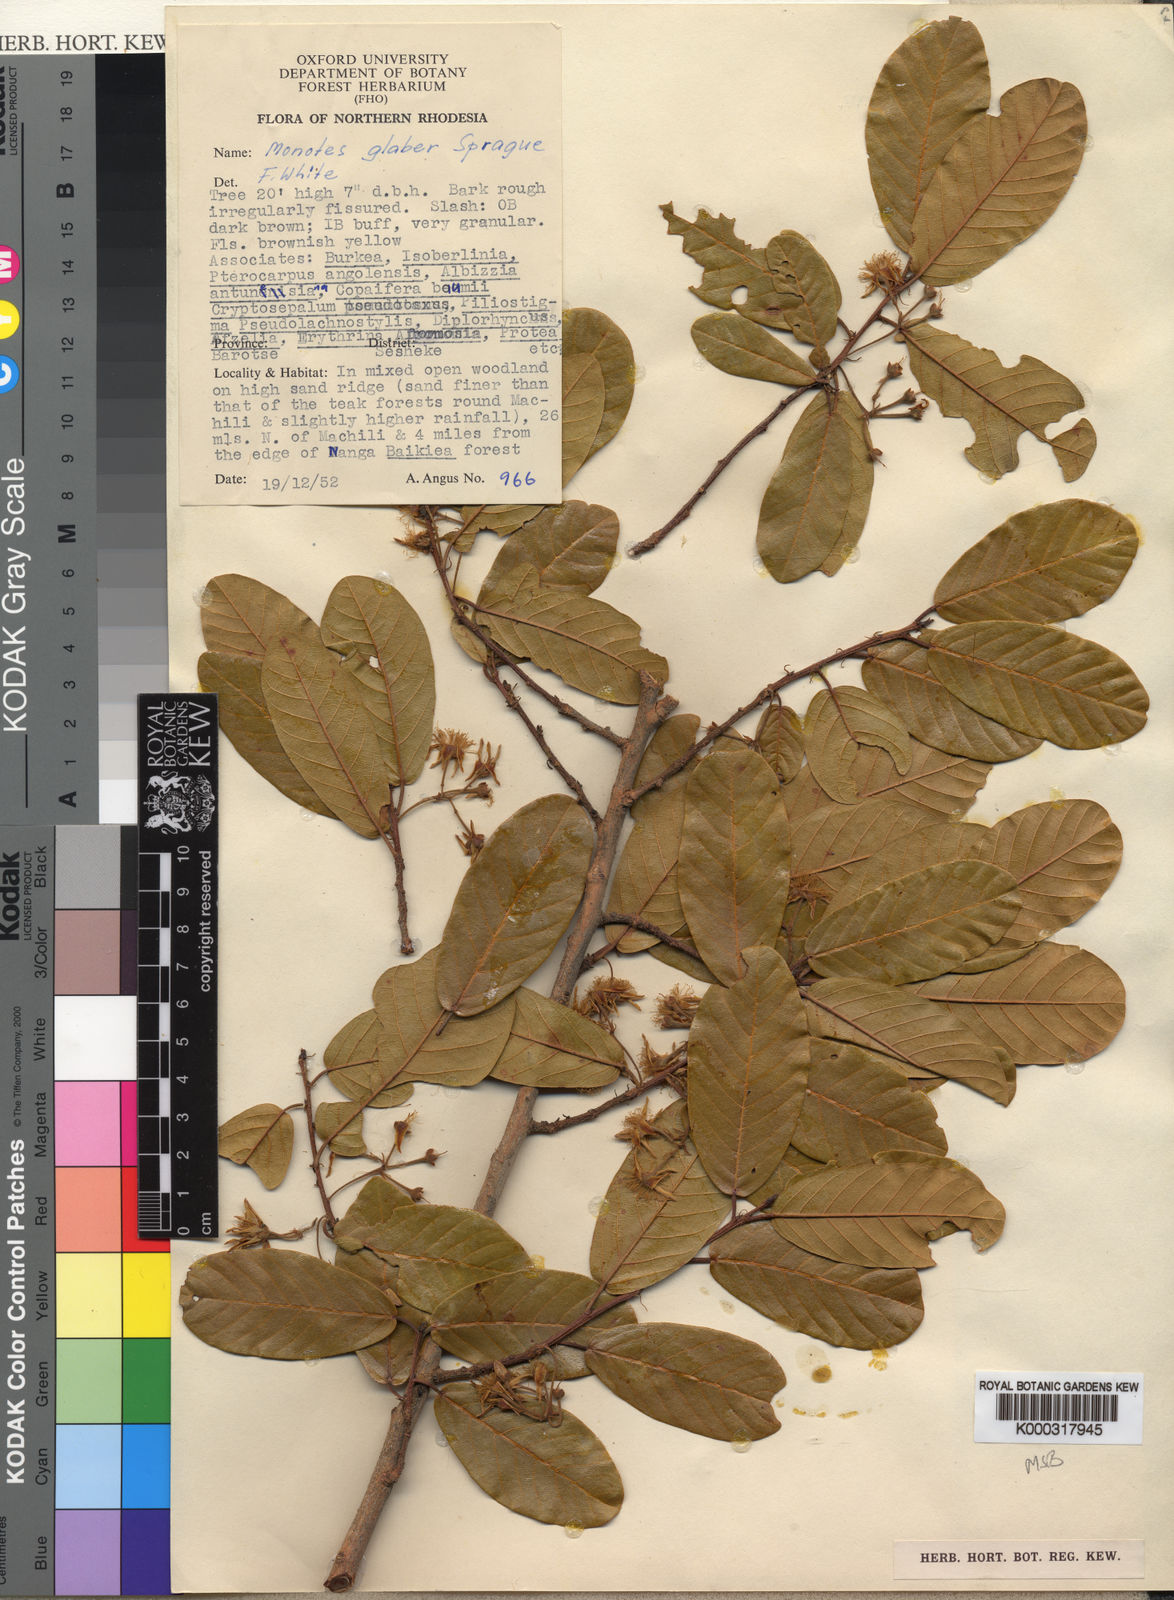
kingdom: Plantae
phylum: Tracheophyta
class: Magnoliopsida
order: Malvales
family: Dipterocarpaceae
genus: Monotes
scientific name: Monotes glaber
